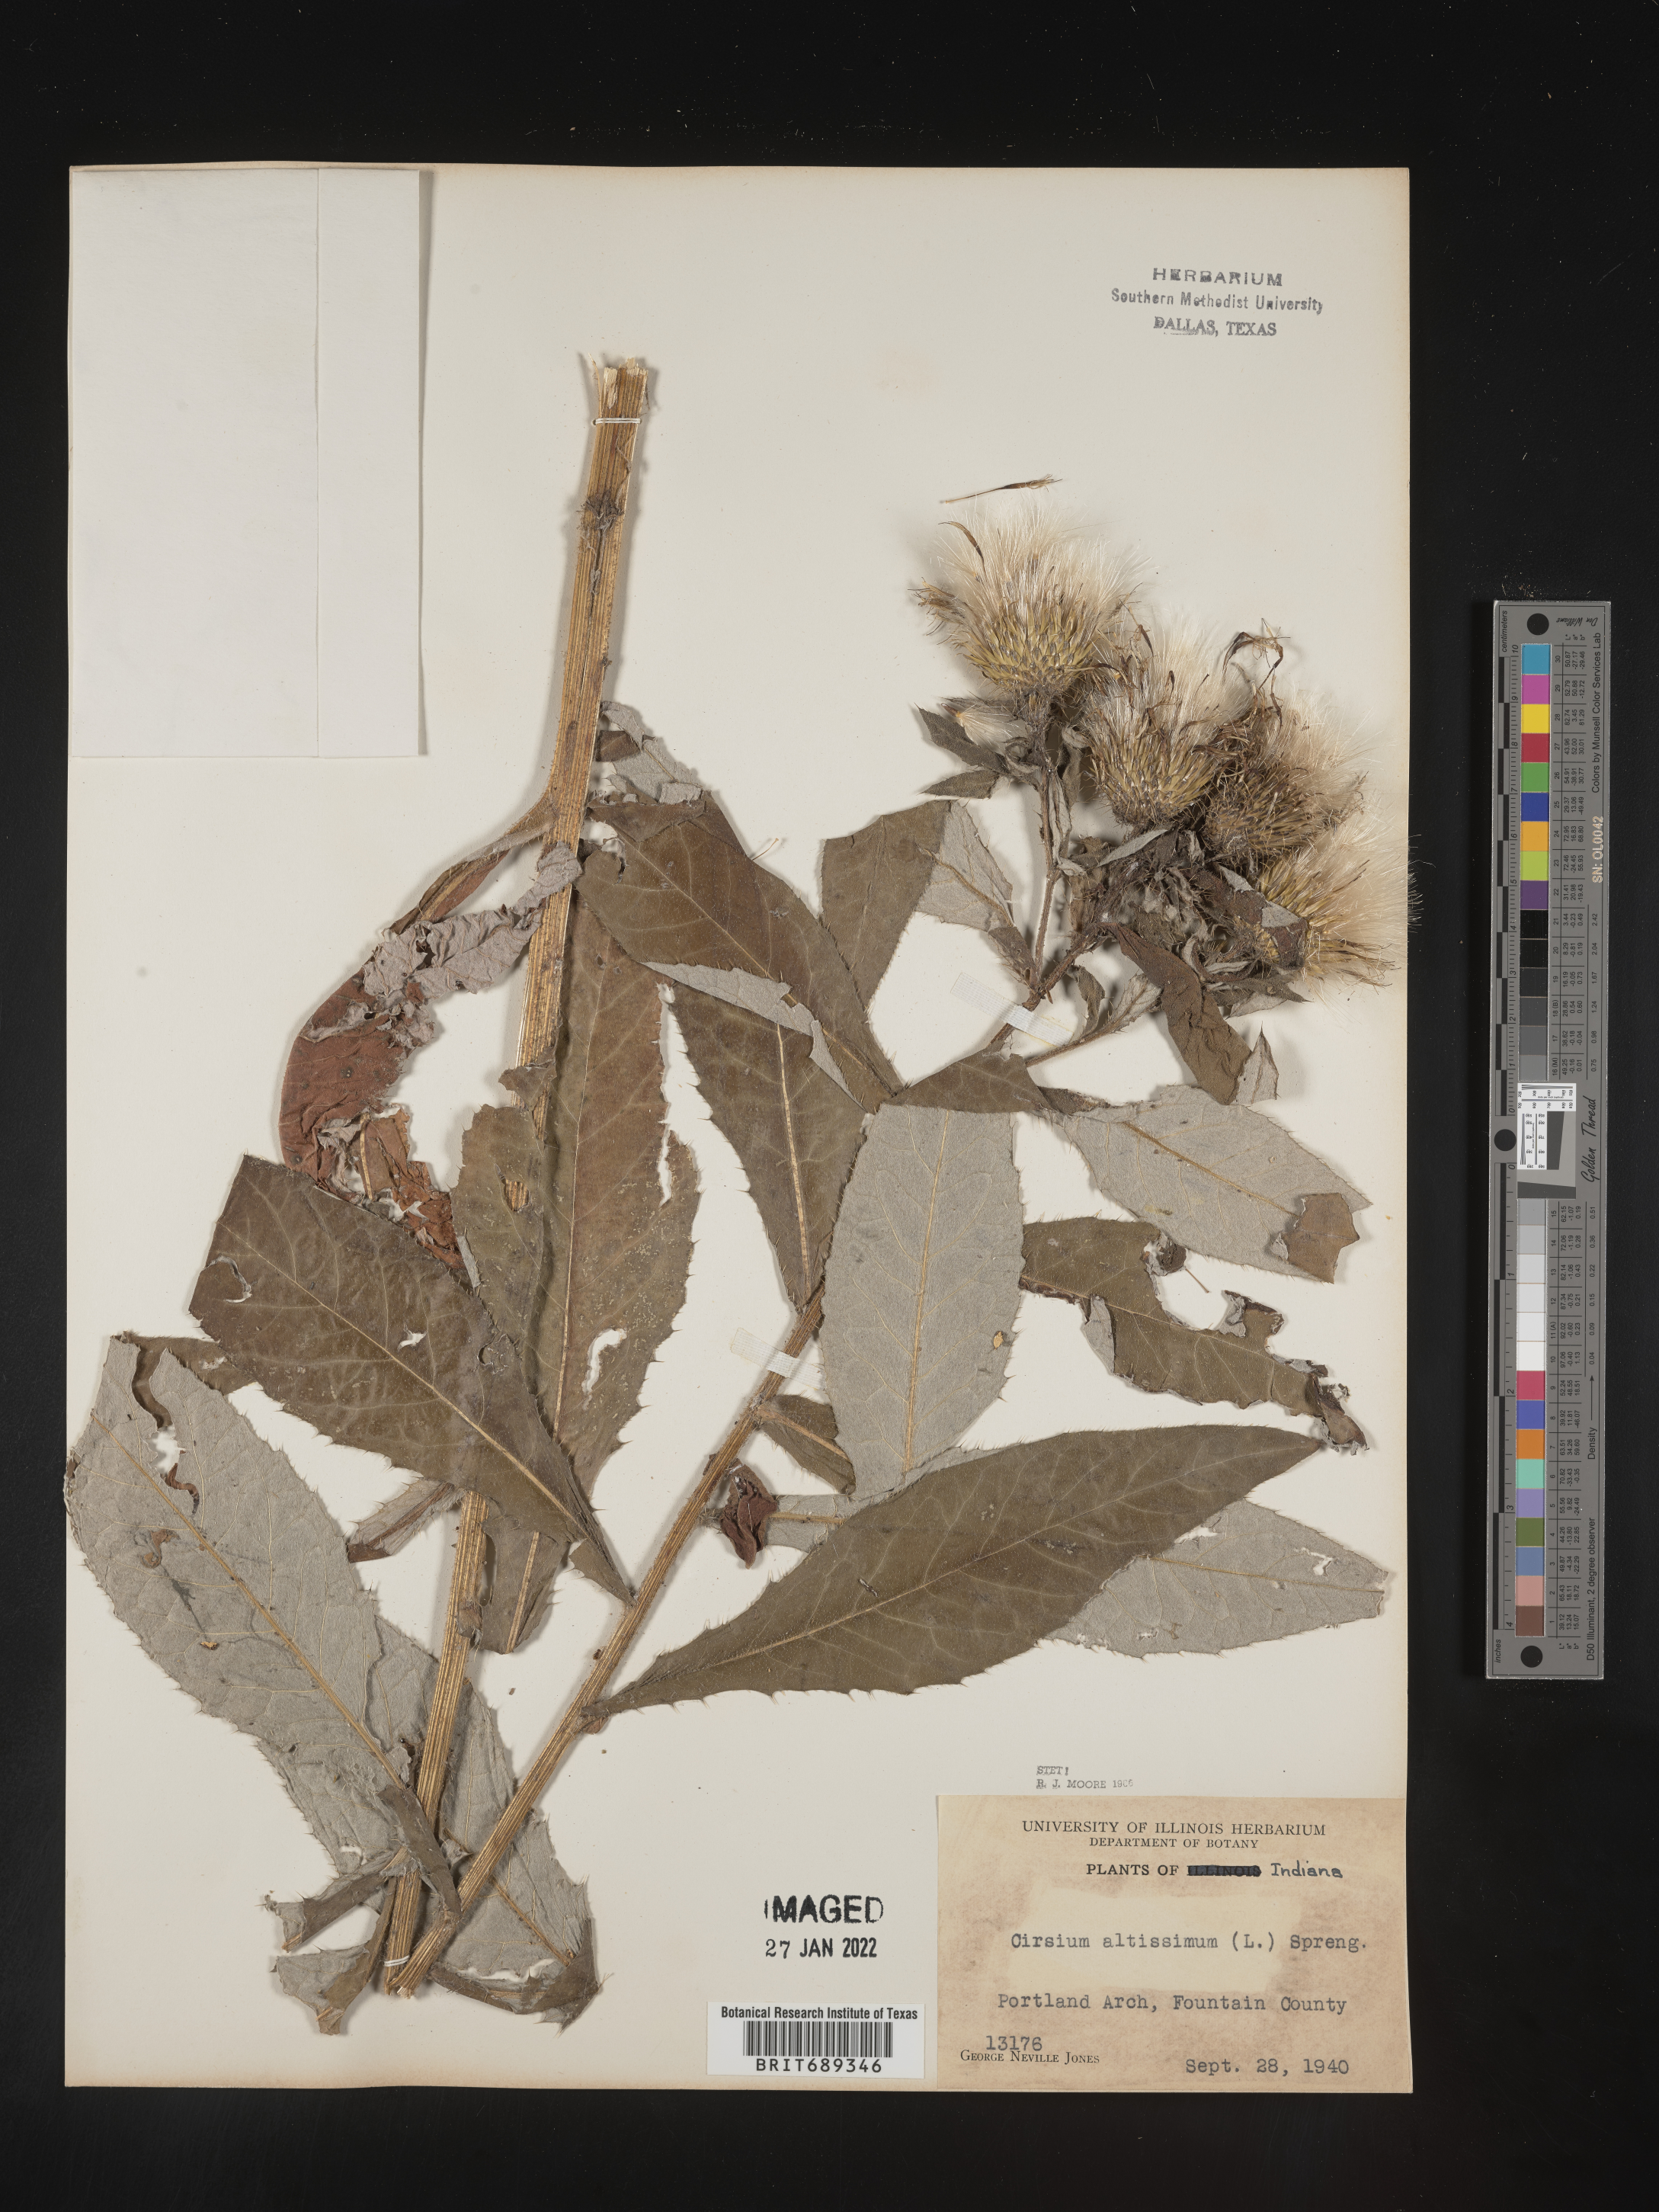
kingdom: Plantae
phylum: Tracheophyta
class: Magnoliopsida
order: Asterales
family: Asteraceae
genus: Cirsium
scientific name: Cirsium altissimum
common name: Roadside thistle
